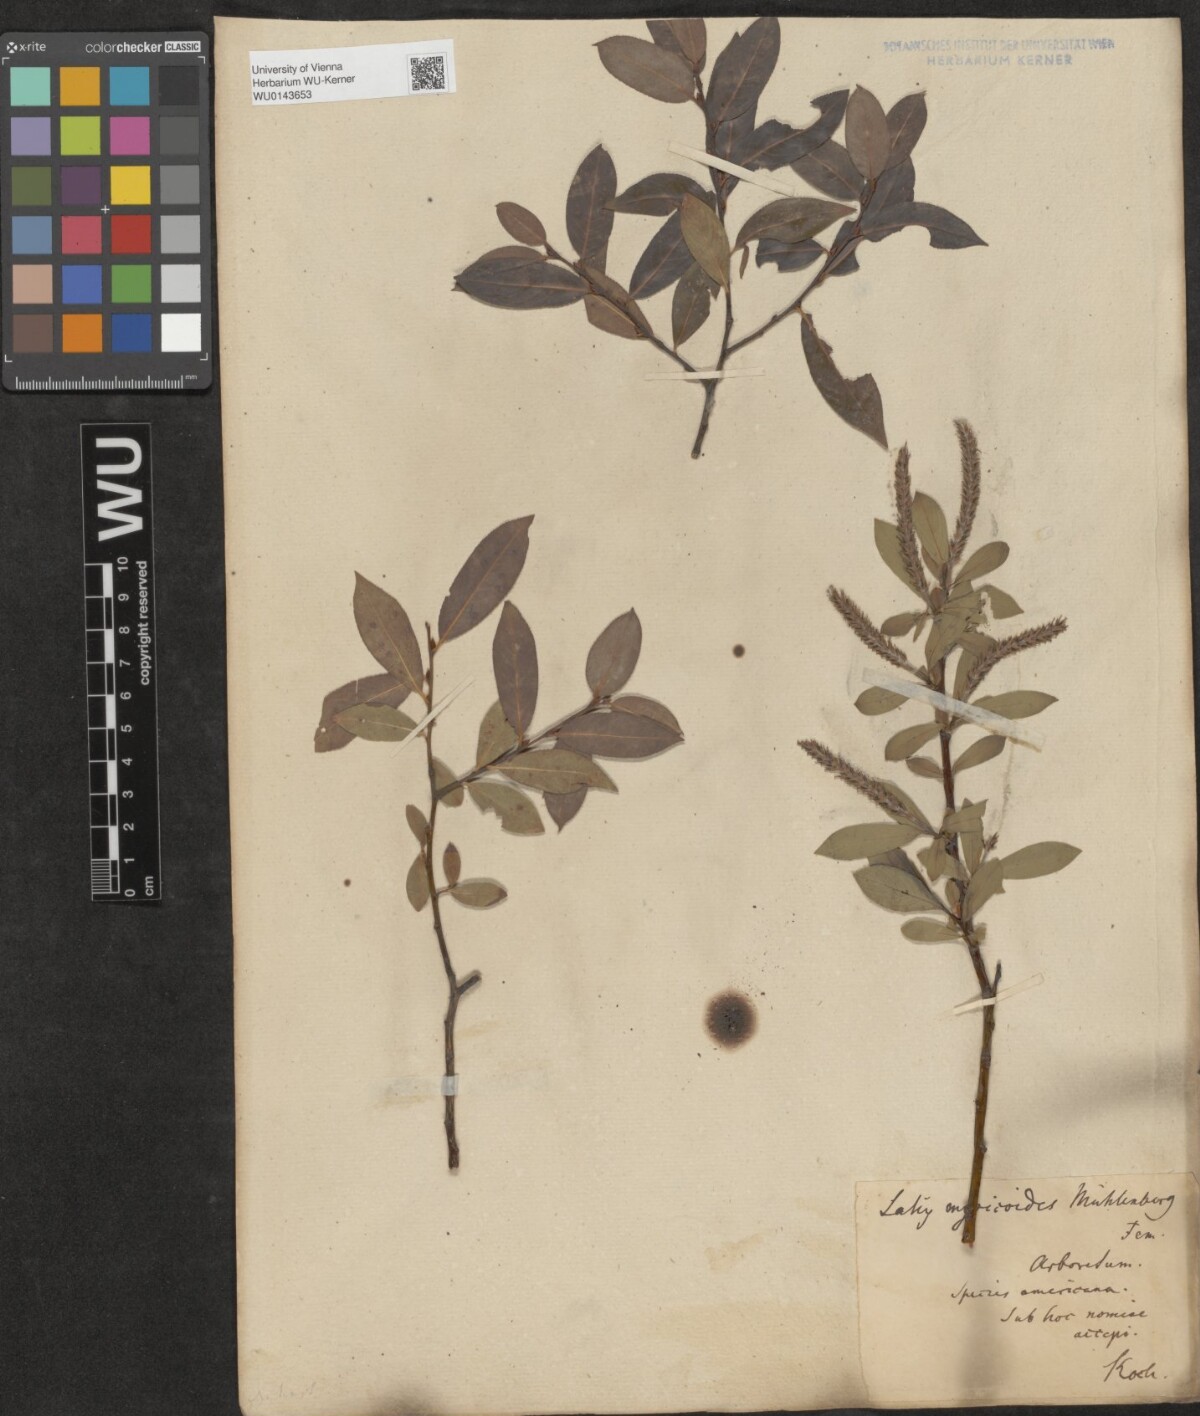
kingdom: Plantae
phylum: Tracheophyta
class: Magnoliopsida
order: Malpighiales
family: Salicaceae
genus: Salix
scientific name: Salix
